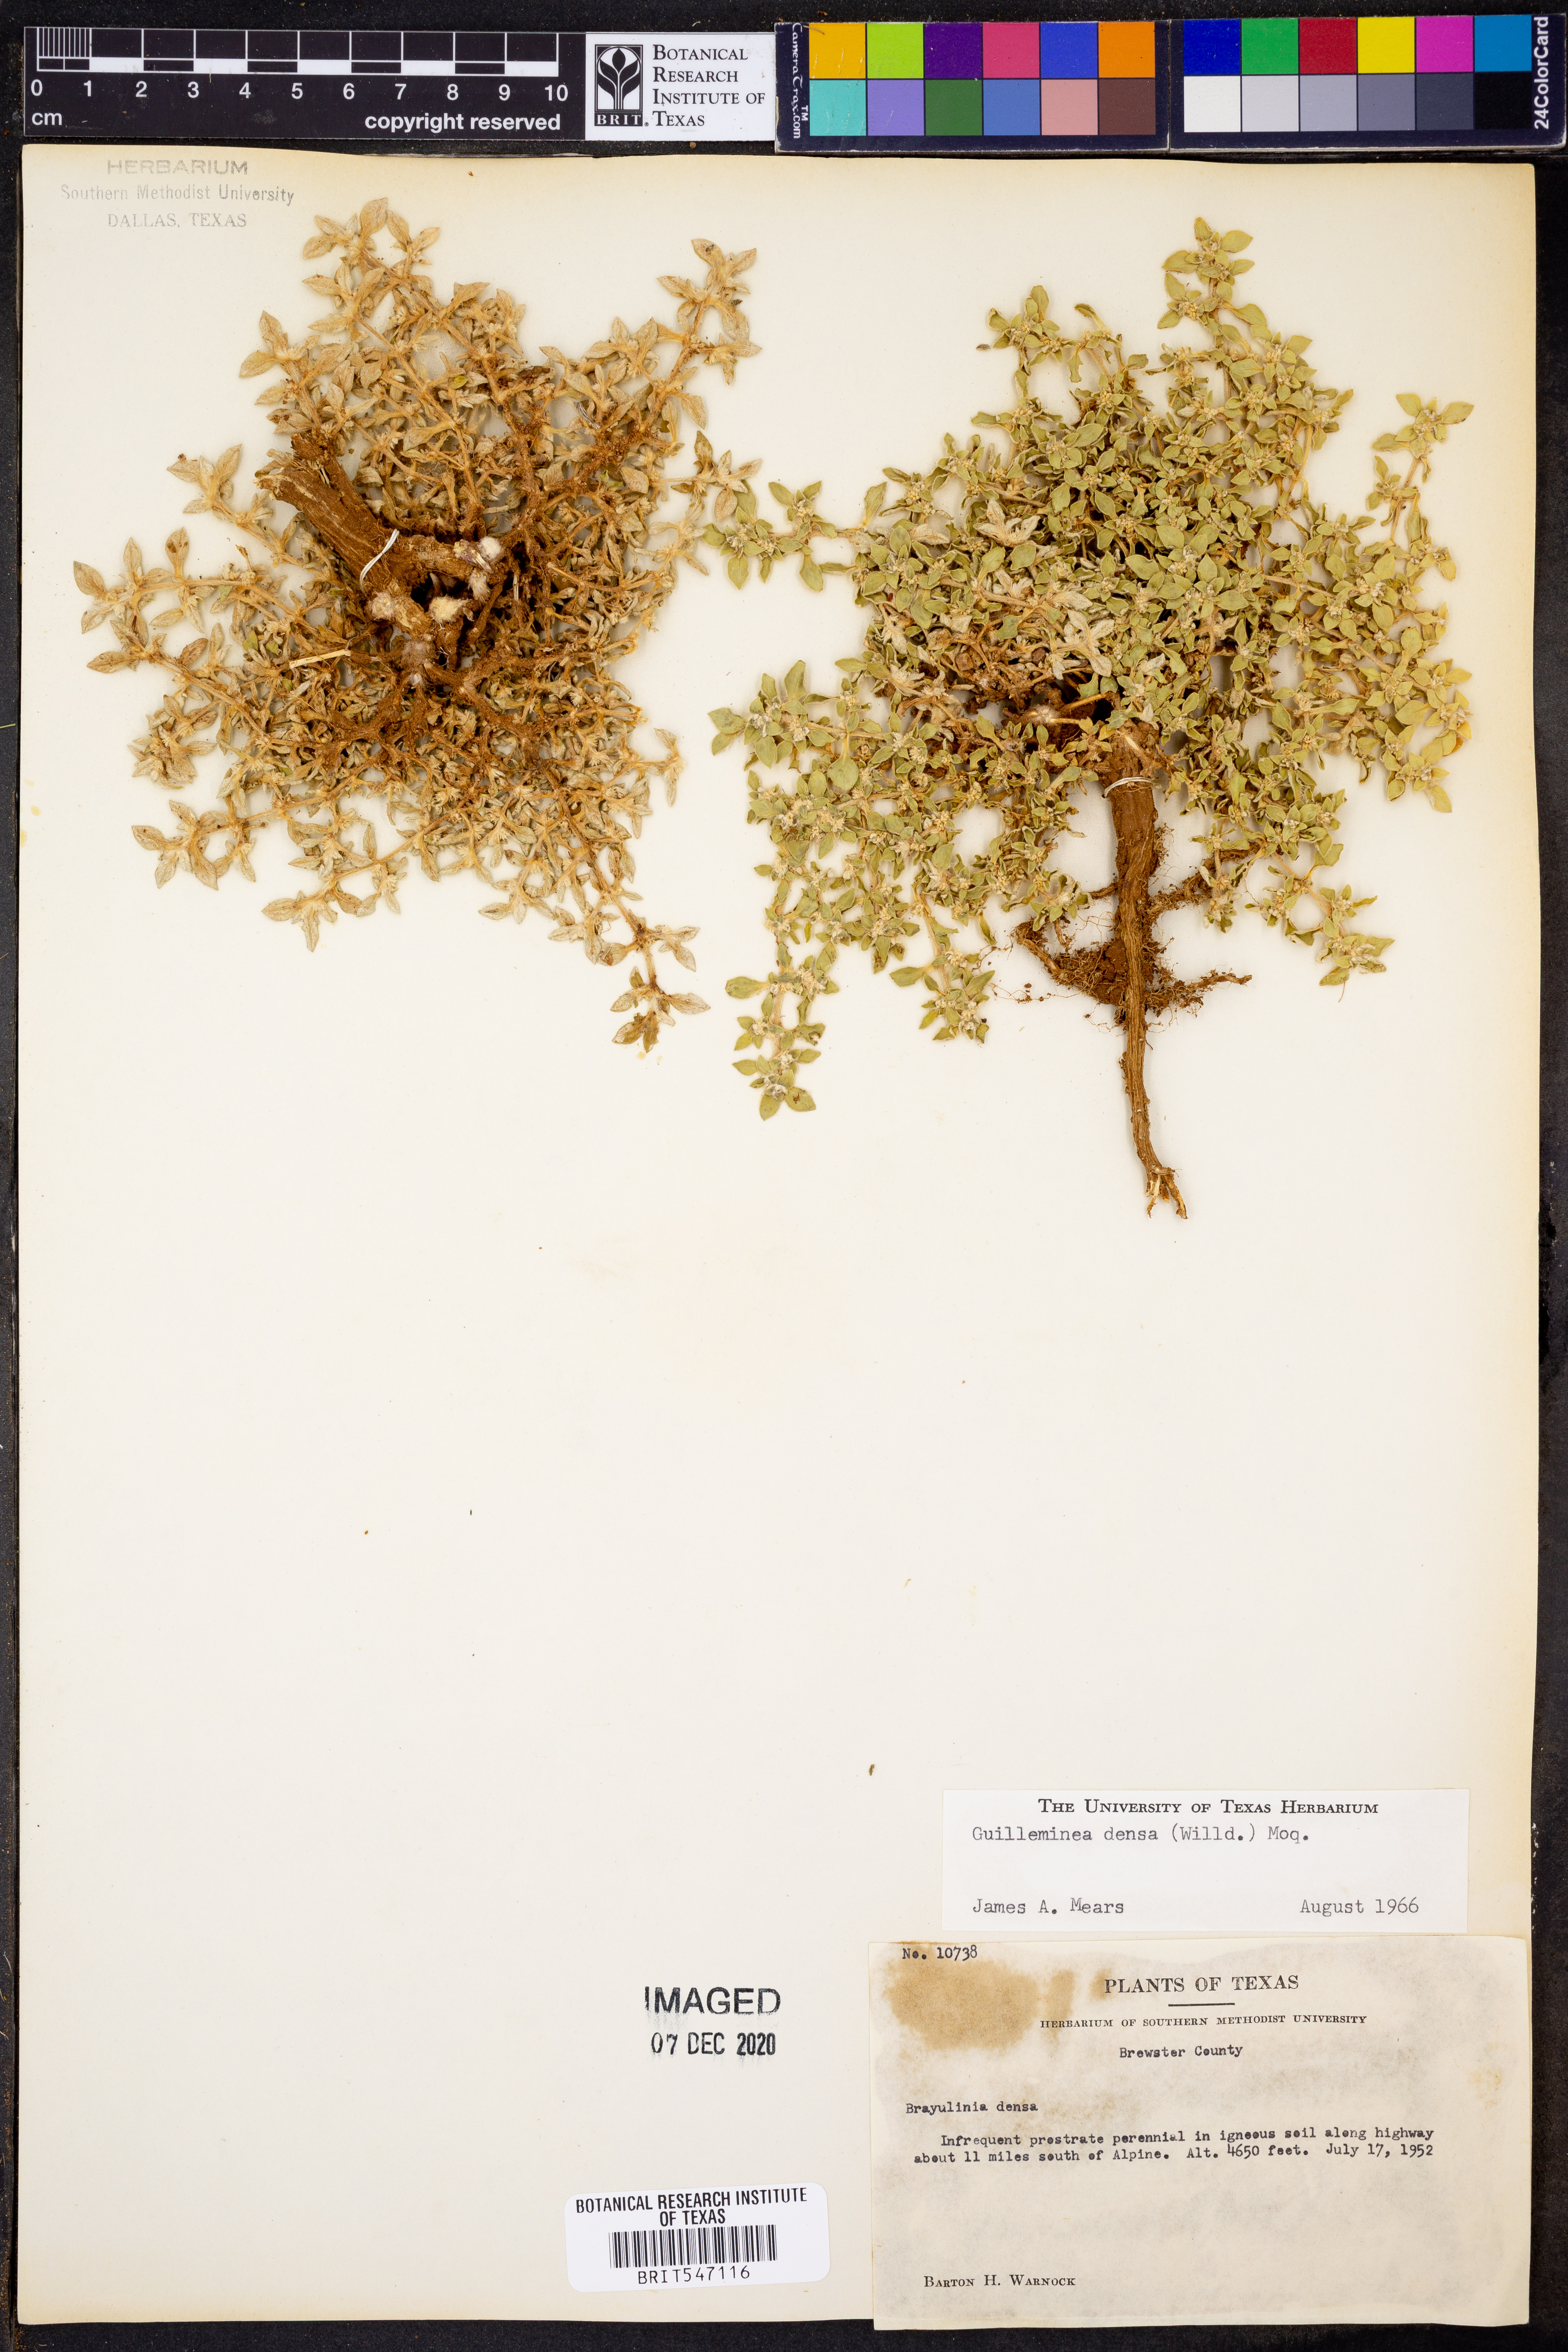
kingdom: Plantae
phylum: Tracheophyta
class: Magnoliopsida
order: Caryophyllales
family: Amaranthaceae
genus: Guilleminea
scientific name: Guilleminea densa
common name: Small matweed
